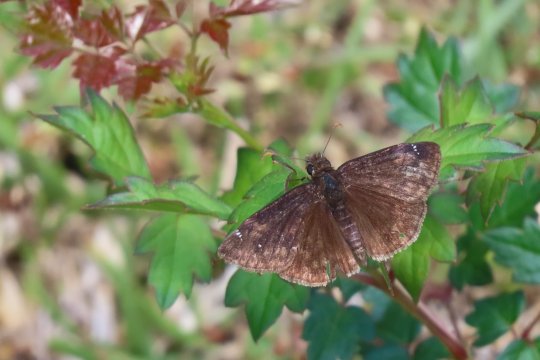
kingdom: Animalia
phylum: Arthropoda
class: Insecta
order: Lepidoptera
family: Hesperiidae
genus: Gesta
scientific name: Gesta
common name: Horace's Duskywing
